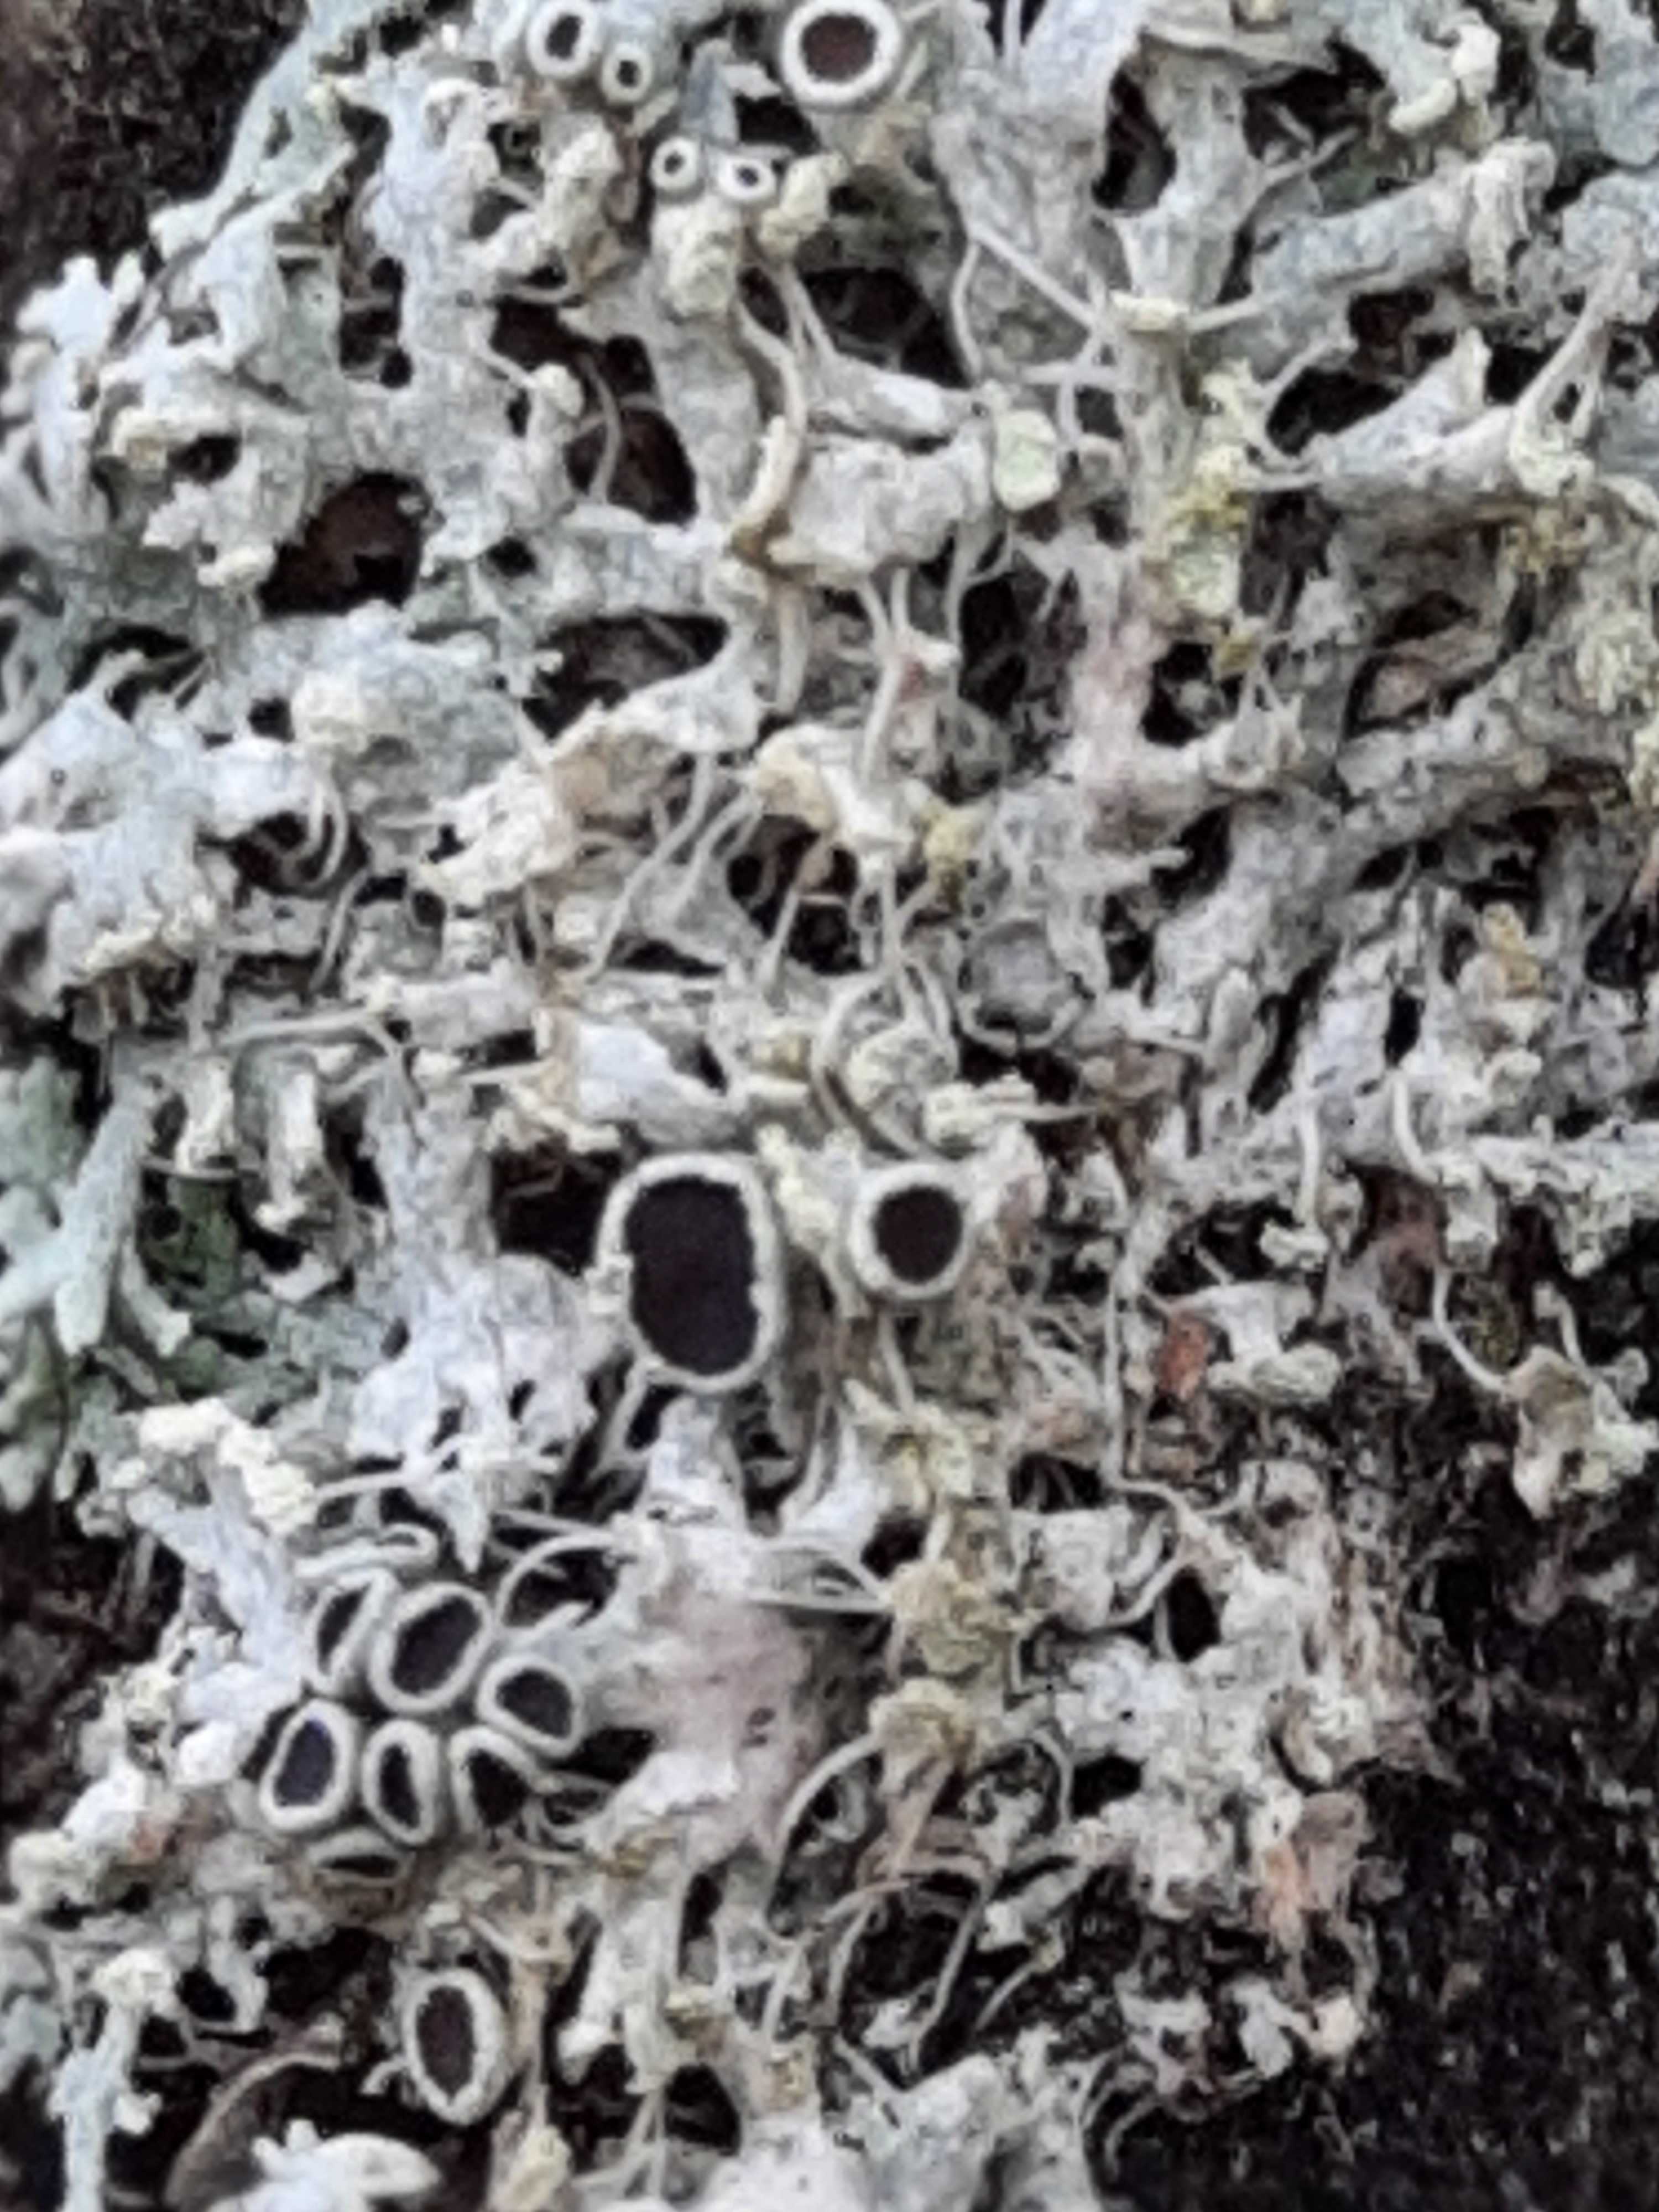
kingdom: Fungi
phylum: Ascomycota
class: Lecanoromycetes
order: Caliciales
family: Physciaceae
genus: Physcia
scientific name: Physcia tenella
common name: spæd rosetlav
